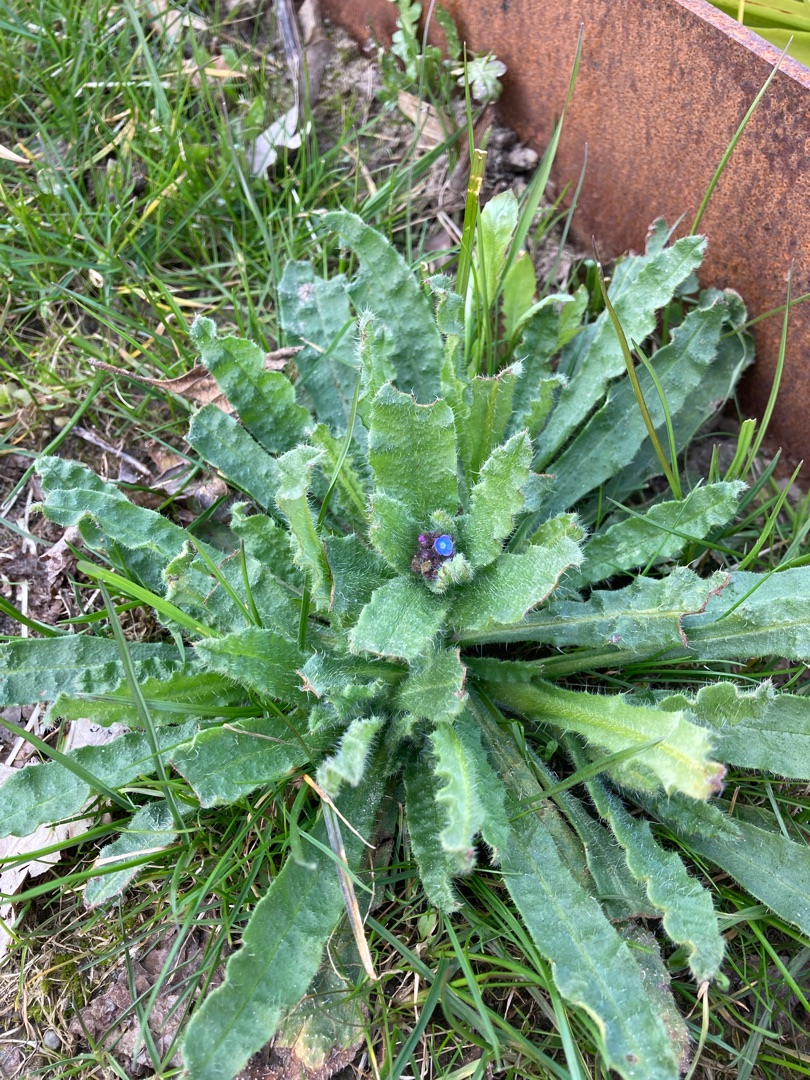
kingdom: Plantae
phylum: Tracheophyta
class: Magnoliopsida
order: Boraginales
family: Boraginaceae
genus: Lycopsis
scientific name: Lycopsis arvensis
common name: Krumhals
